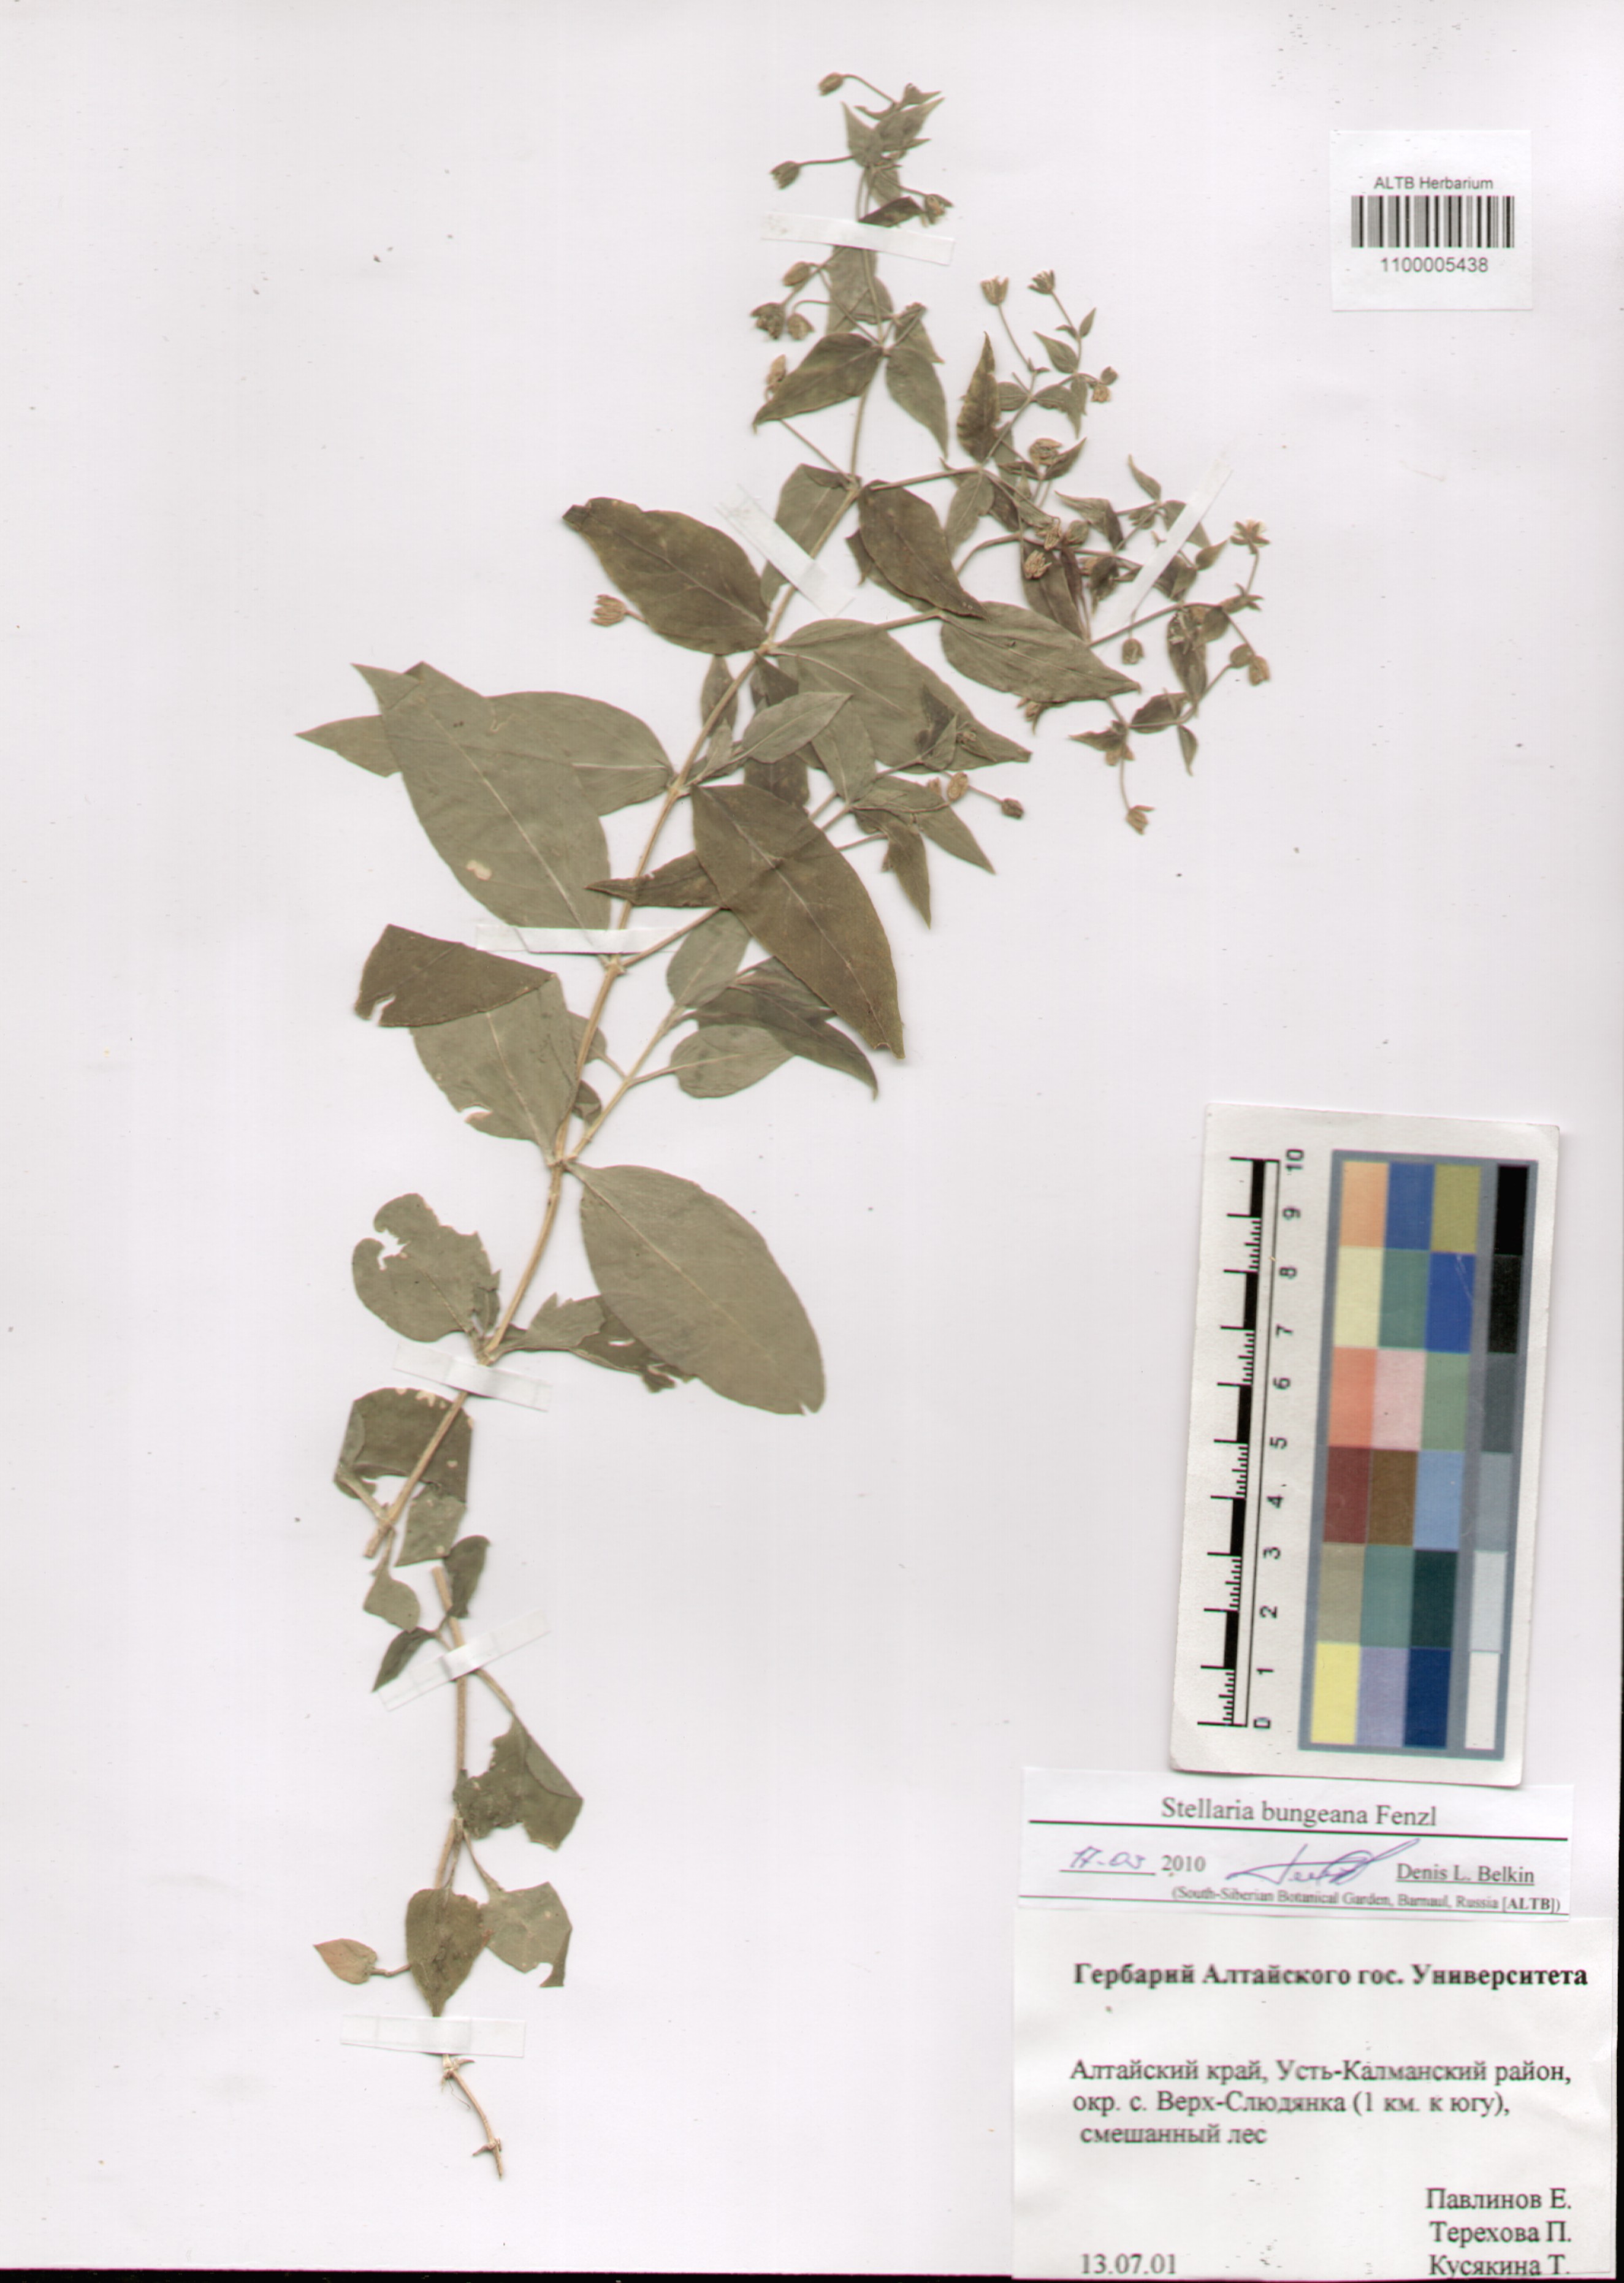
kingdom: Plantae
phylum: Tracheophyta
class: Magnoliopsida
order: Caryophyllales
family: Caryophyllaceae
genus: Stellaria
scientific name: Stellaria bungeana
